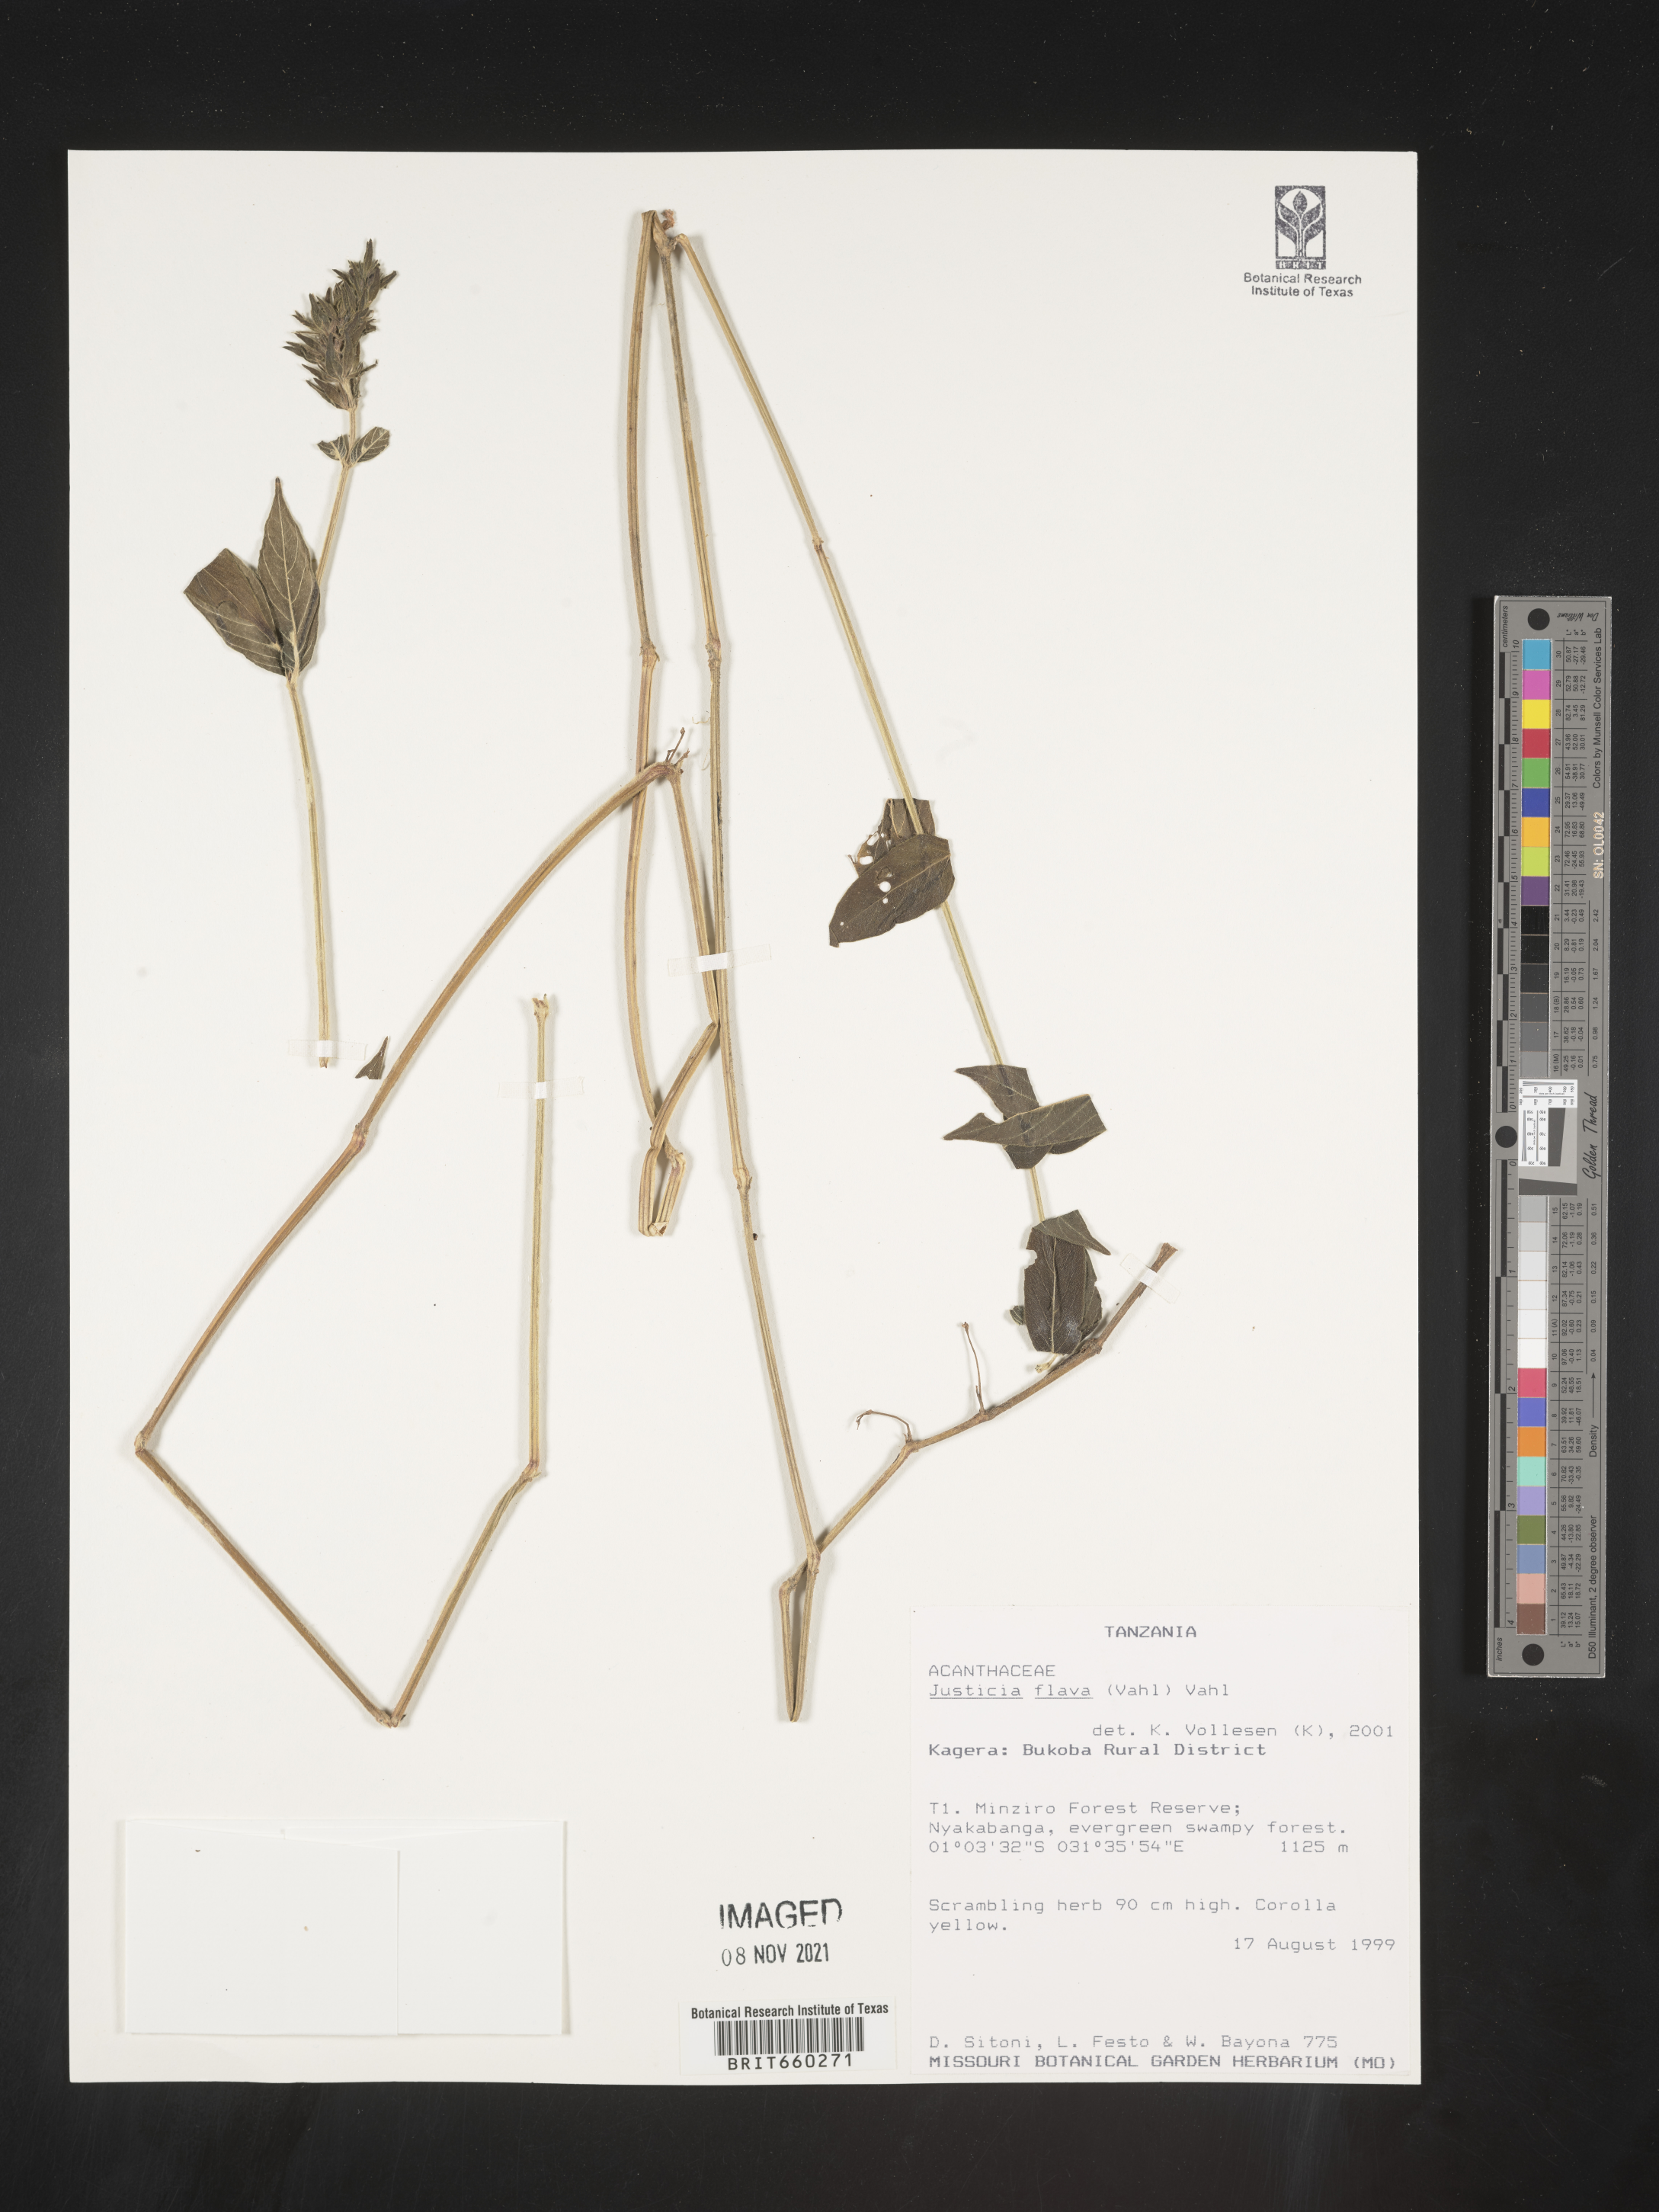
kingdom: Plantae
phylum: Tracheophyta
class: Magnoliopsida
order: Lamiales
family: Acanthaceae
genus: Justicia
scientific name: Justicia flava
